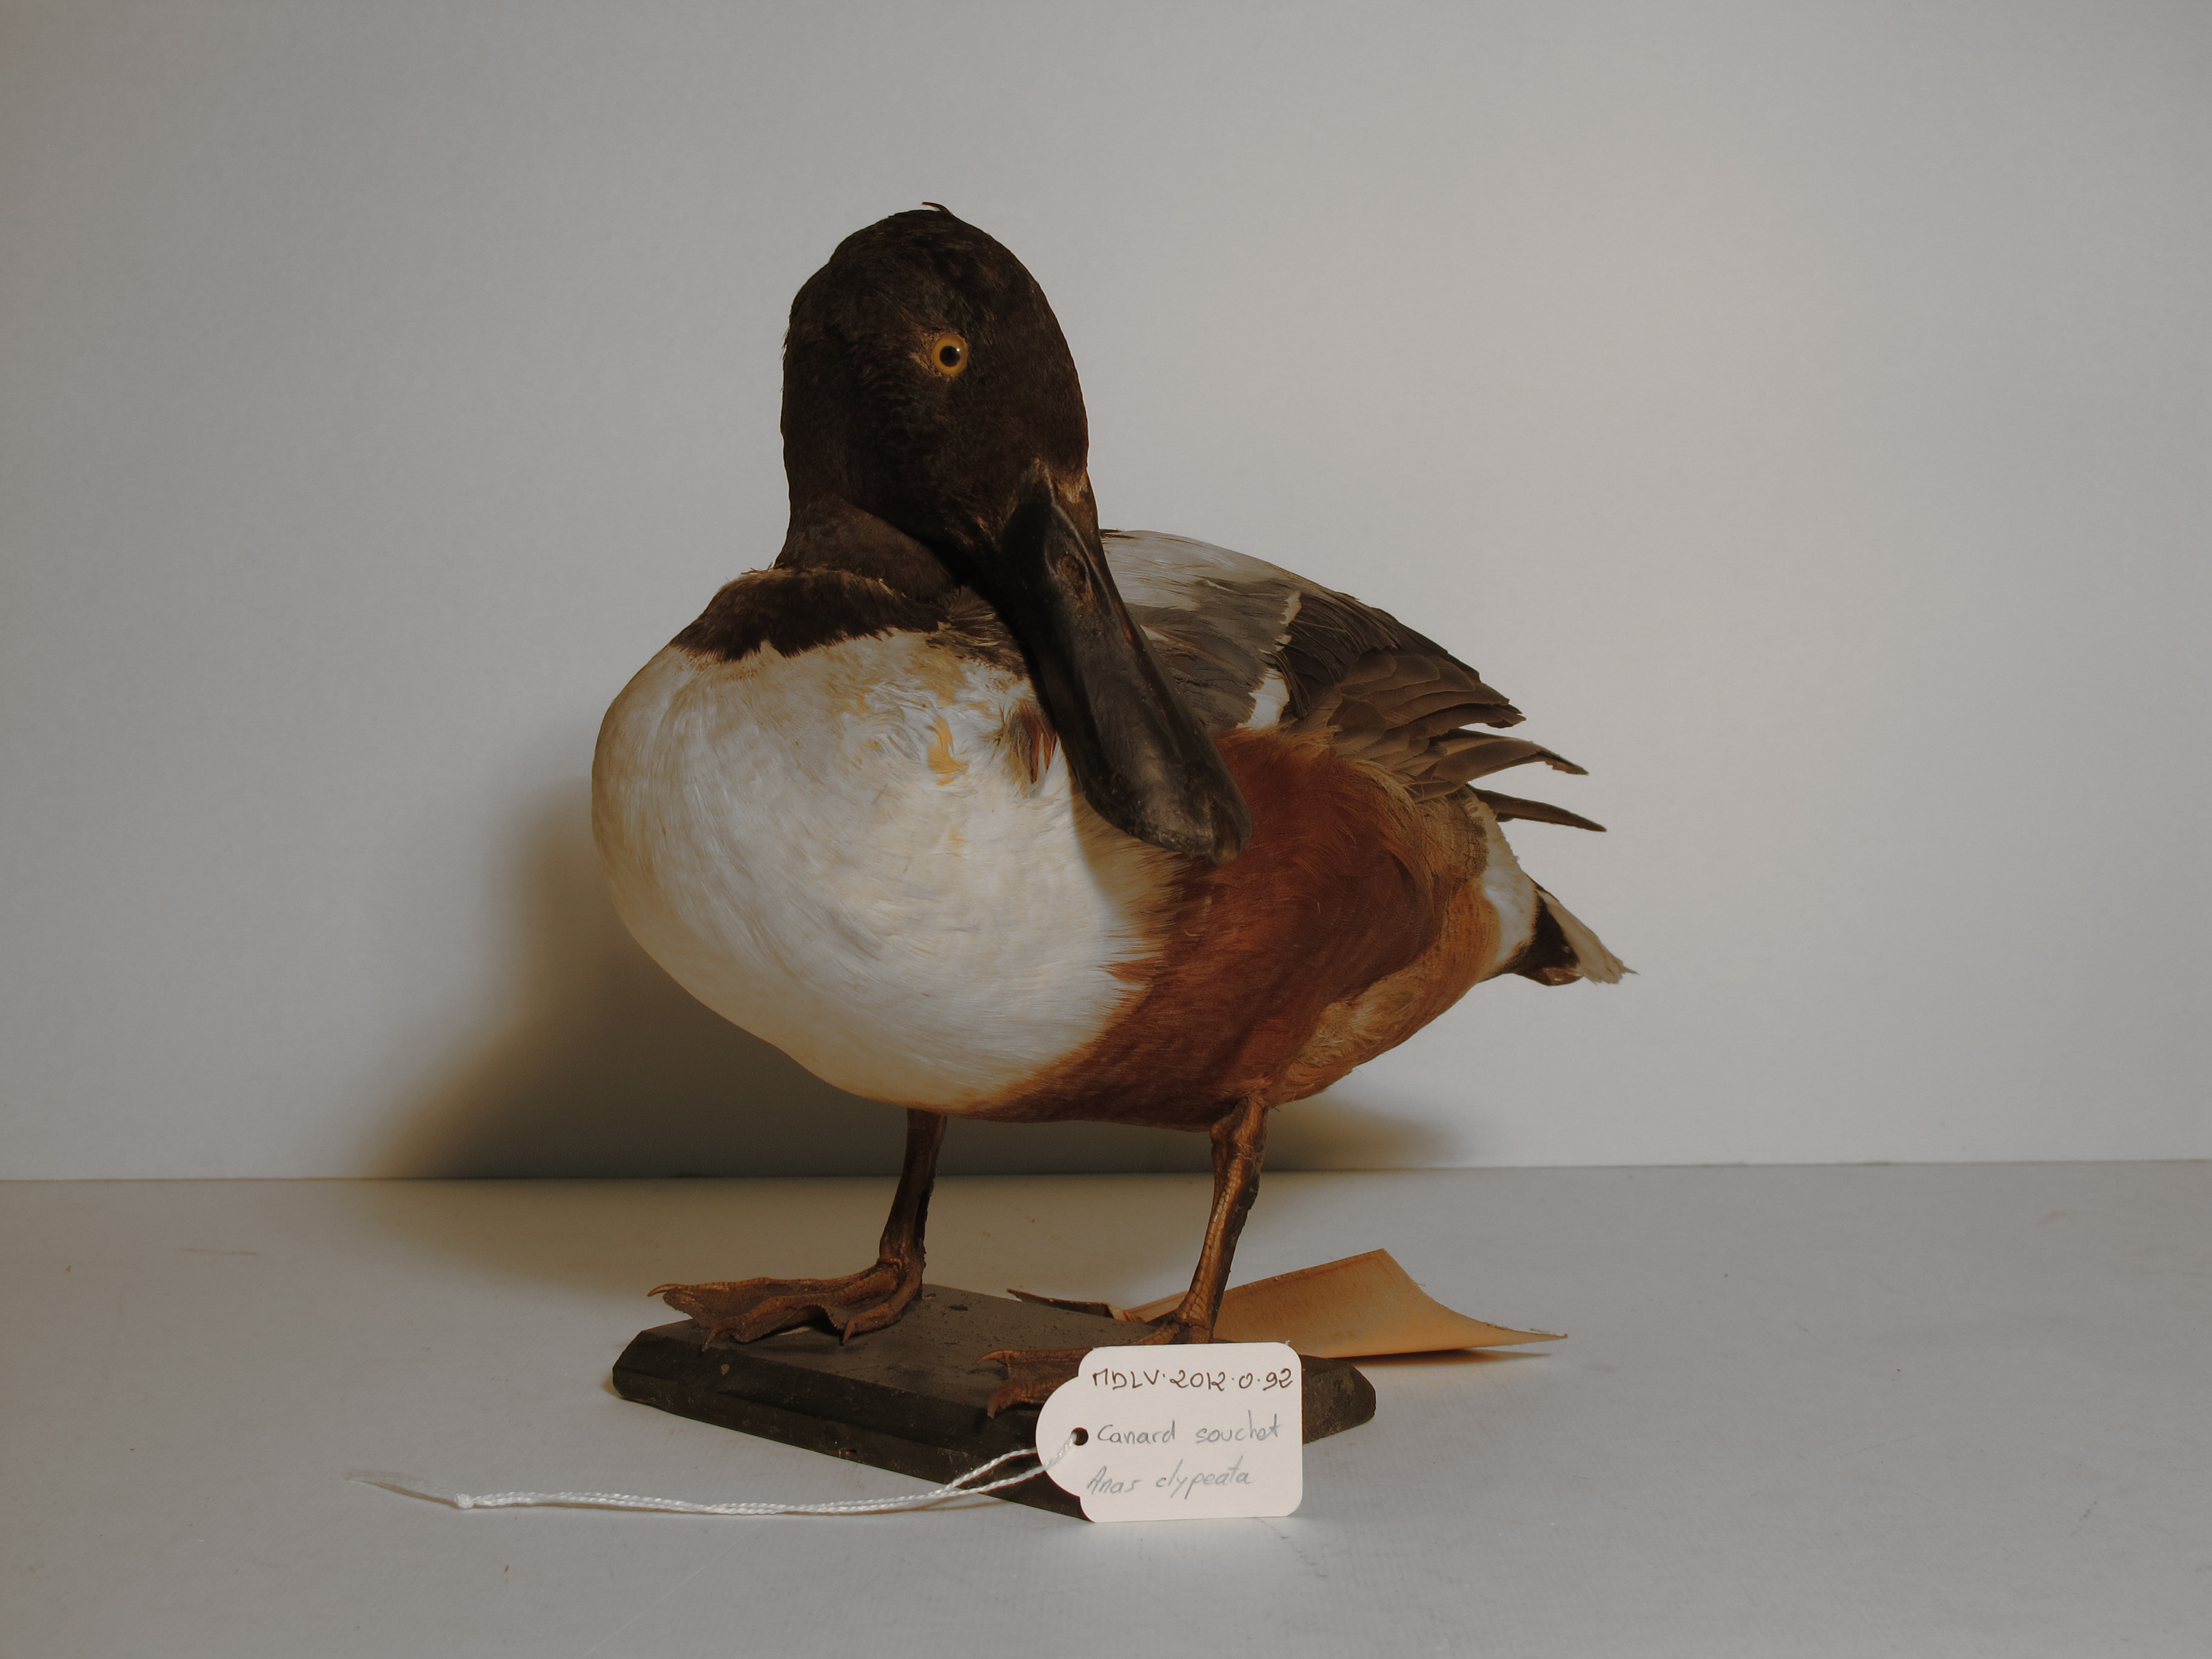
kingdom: Animalia
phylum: Chordata
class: Aves
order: Anseriformes
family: Anatidae
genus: Spatula
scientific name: Spatula clypeata
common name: Northern Shoveler
